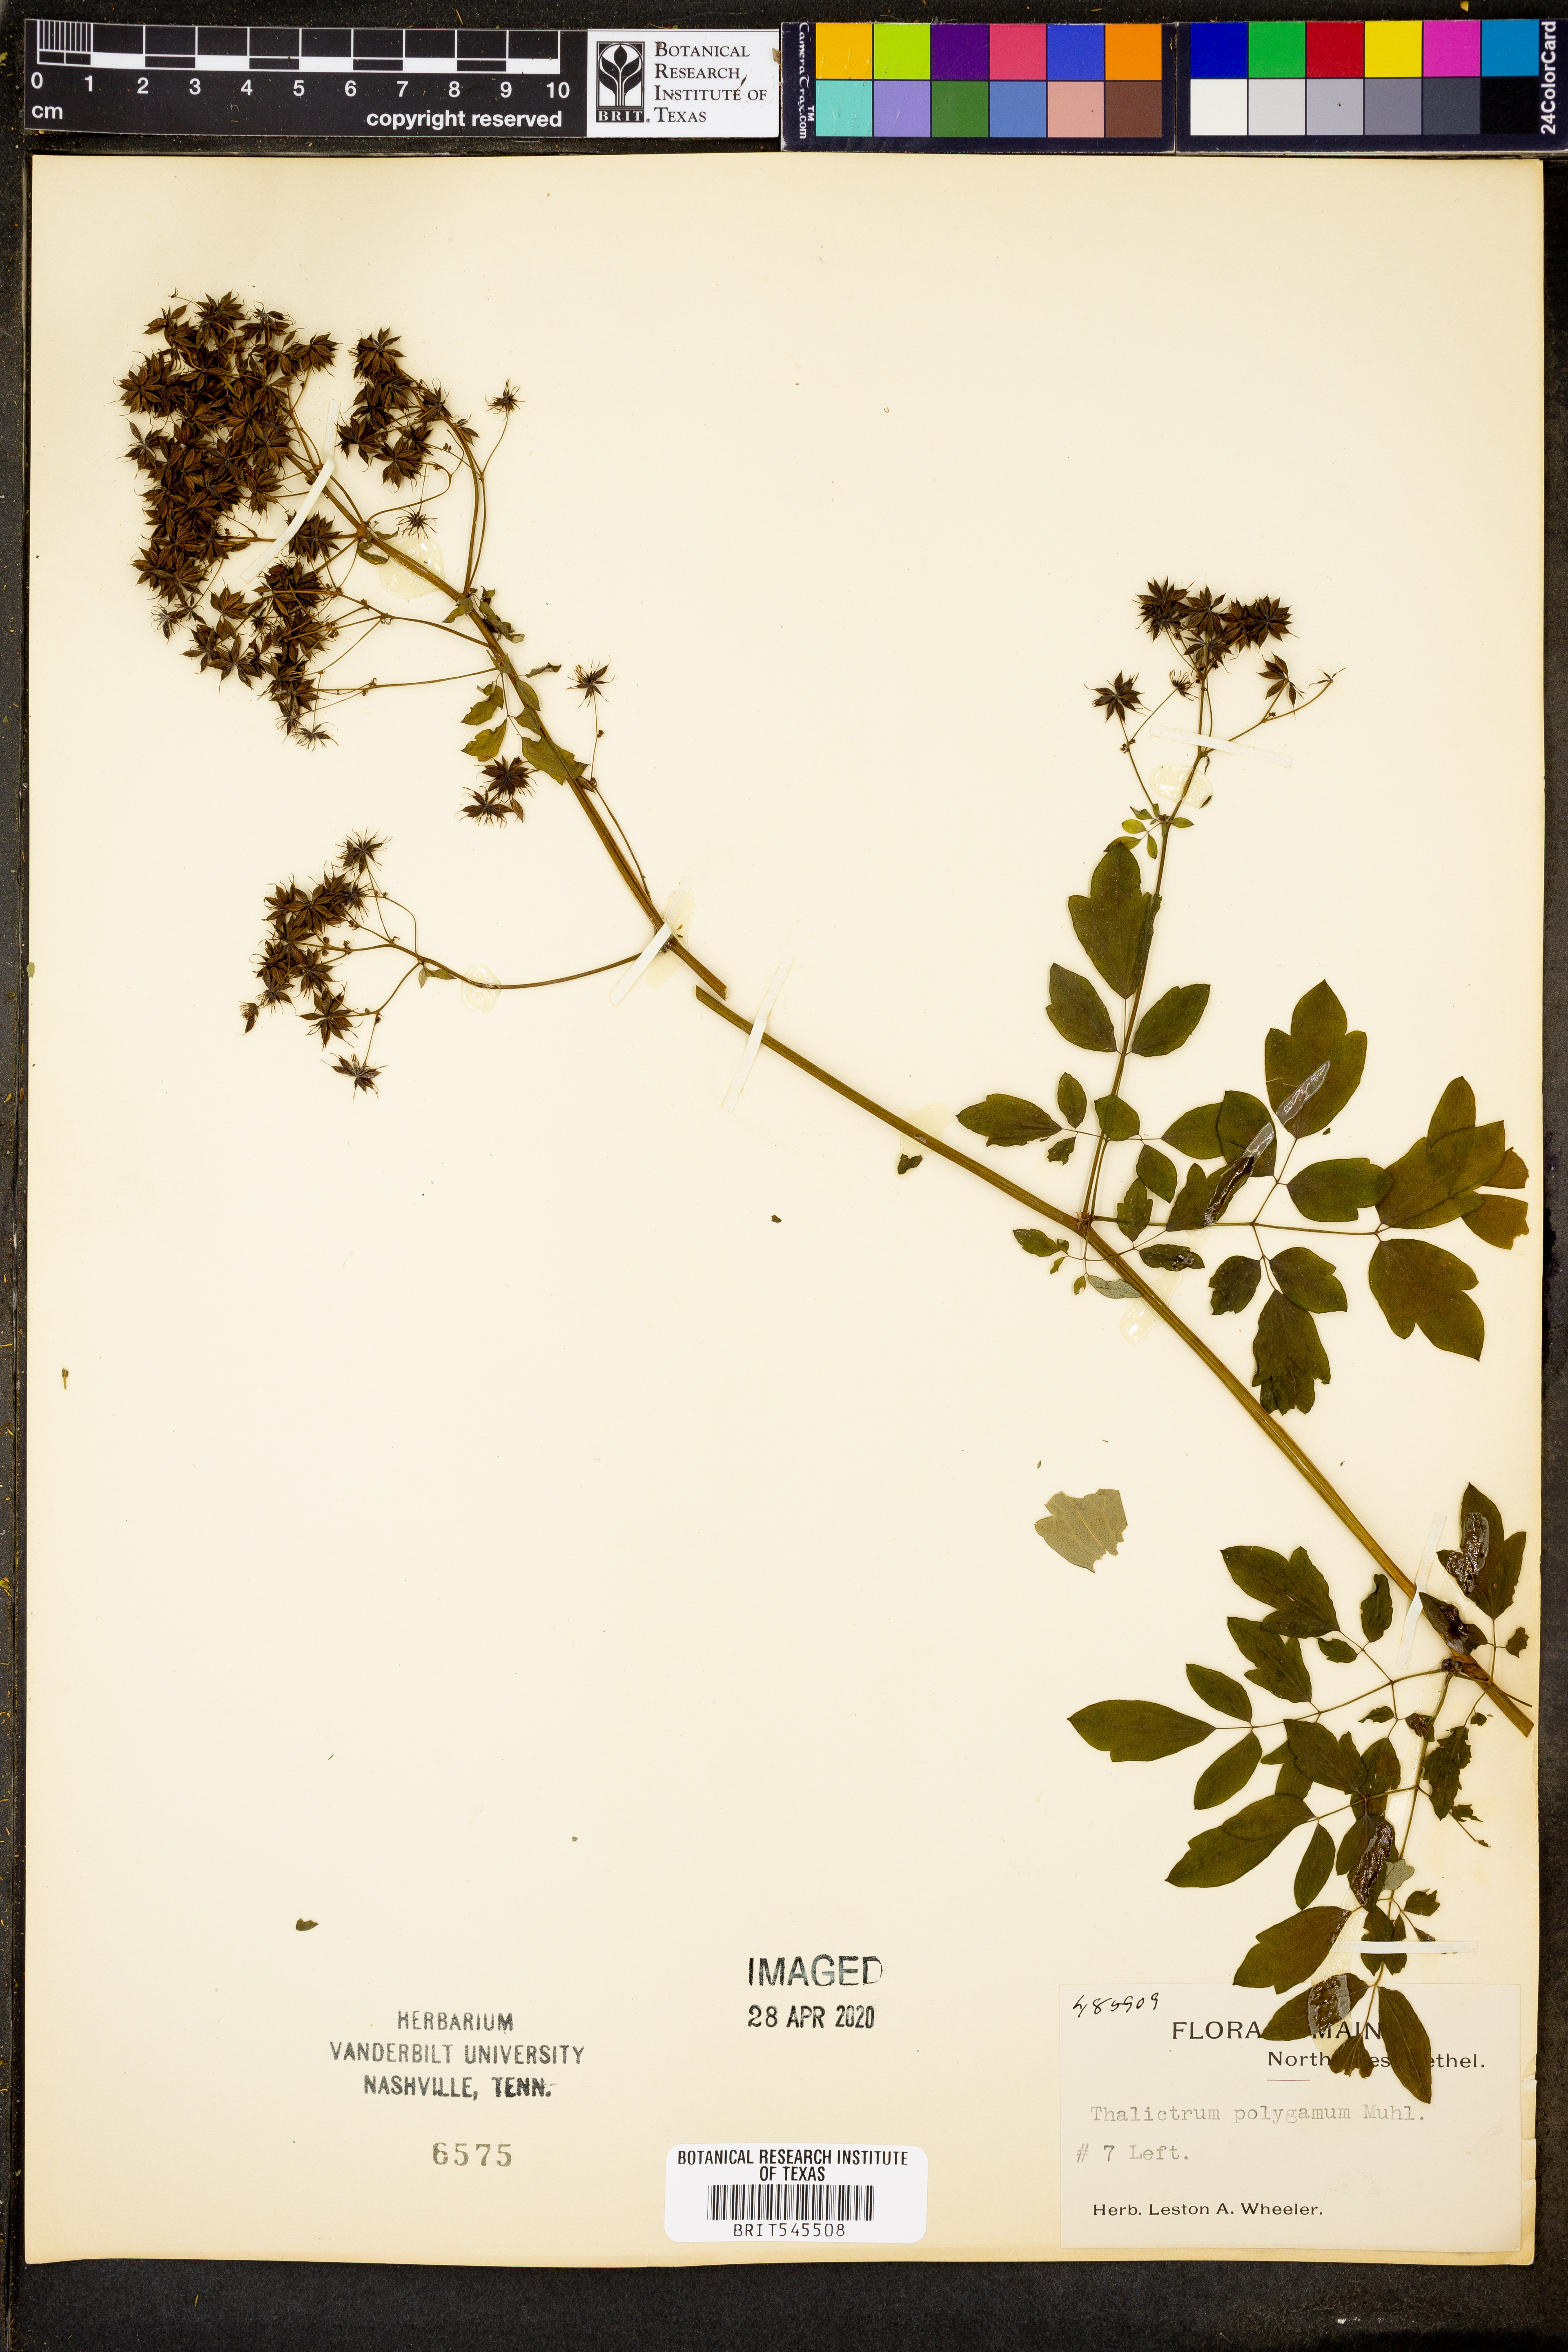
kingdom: Plantae
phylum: Tracheophyta
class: Magnoliopsida
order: Ranunculales
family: Ranunculaceae
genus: Thalictrum
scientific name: Thalictrum pubescens
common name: King-of-the-meadow
